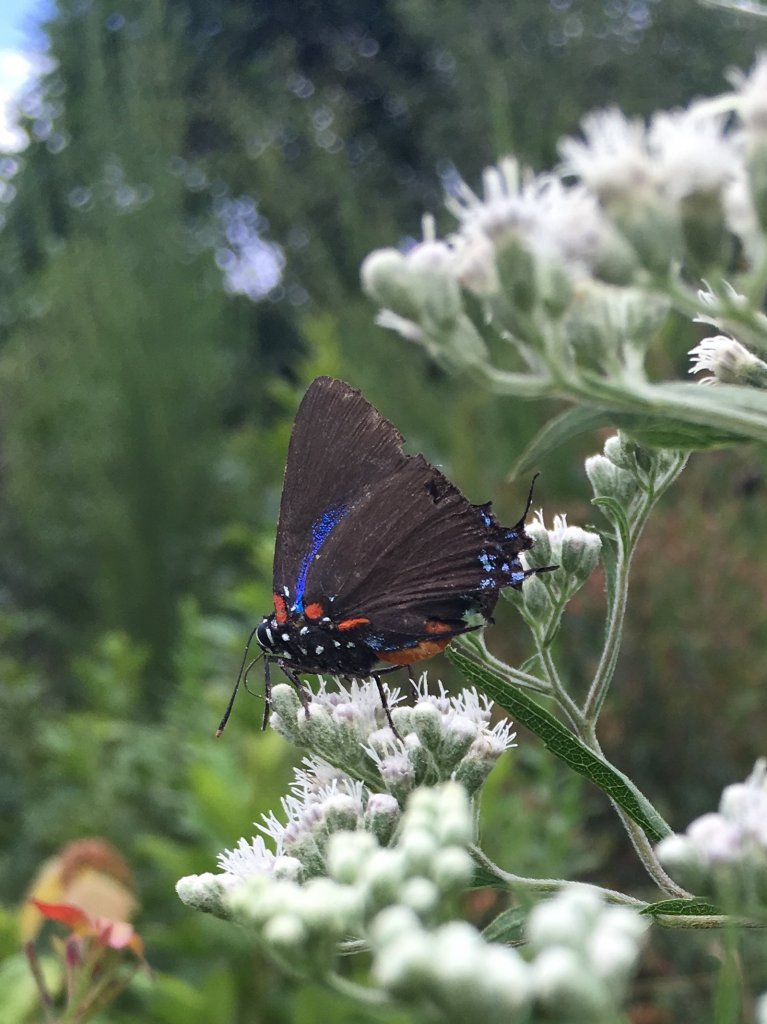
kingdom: Animalia
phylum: Arthropoda
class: Insecta
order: Lepidoptera
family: Lycaenidae
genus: Atlides
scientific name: Atlides halesus
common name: Great Purple Hairstreak
